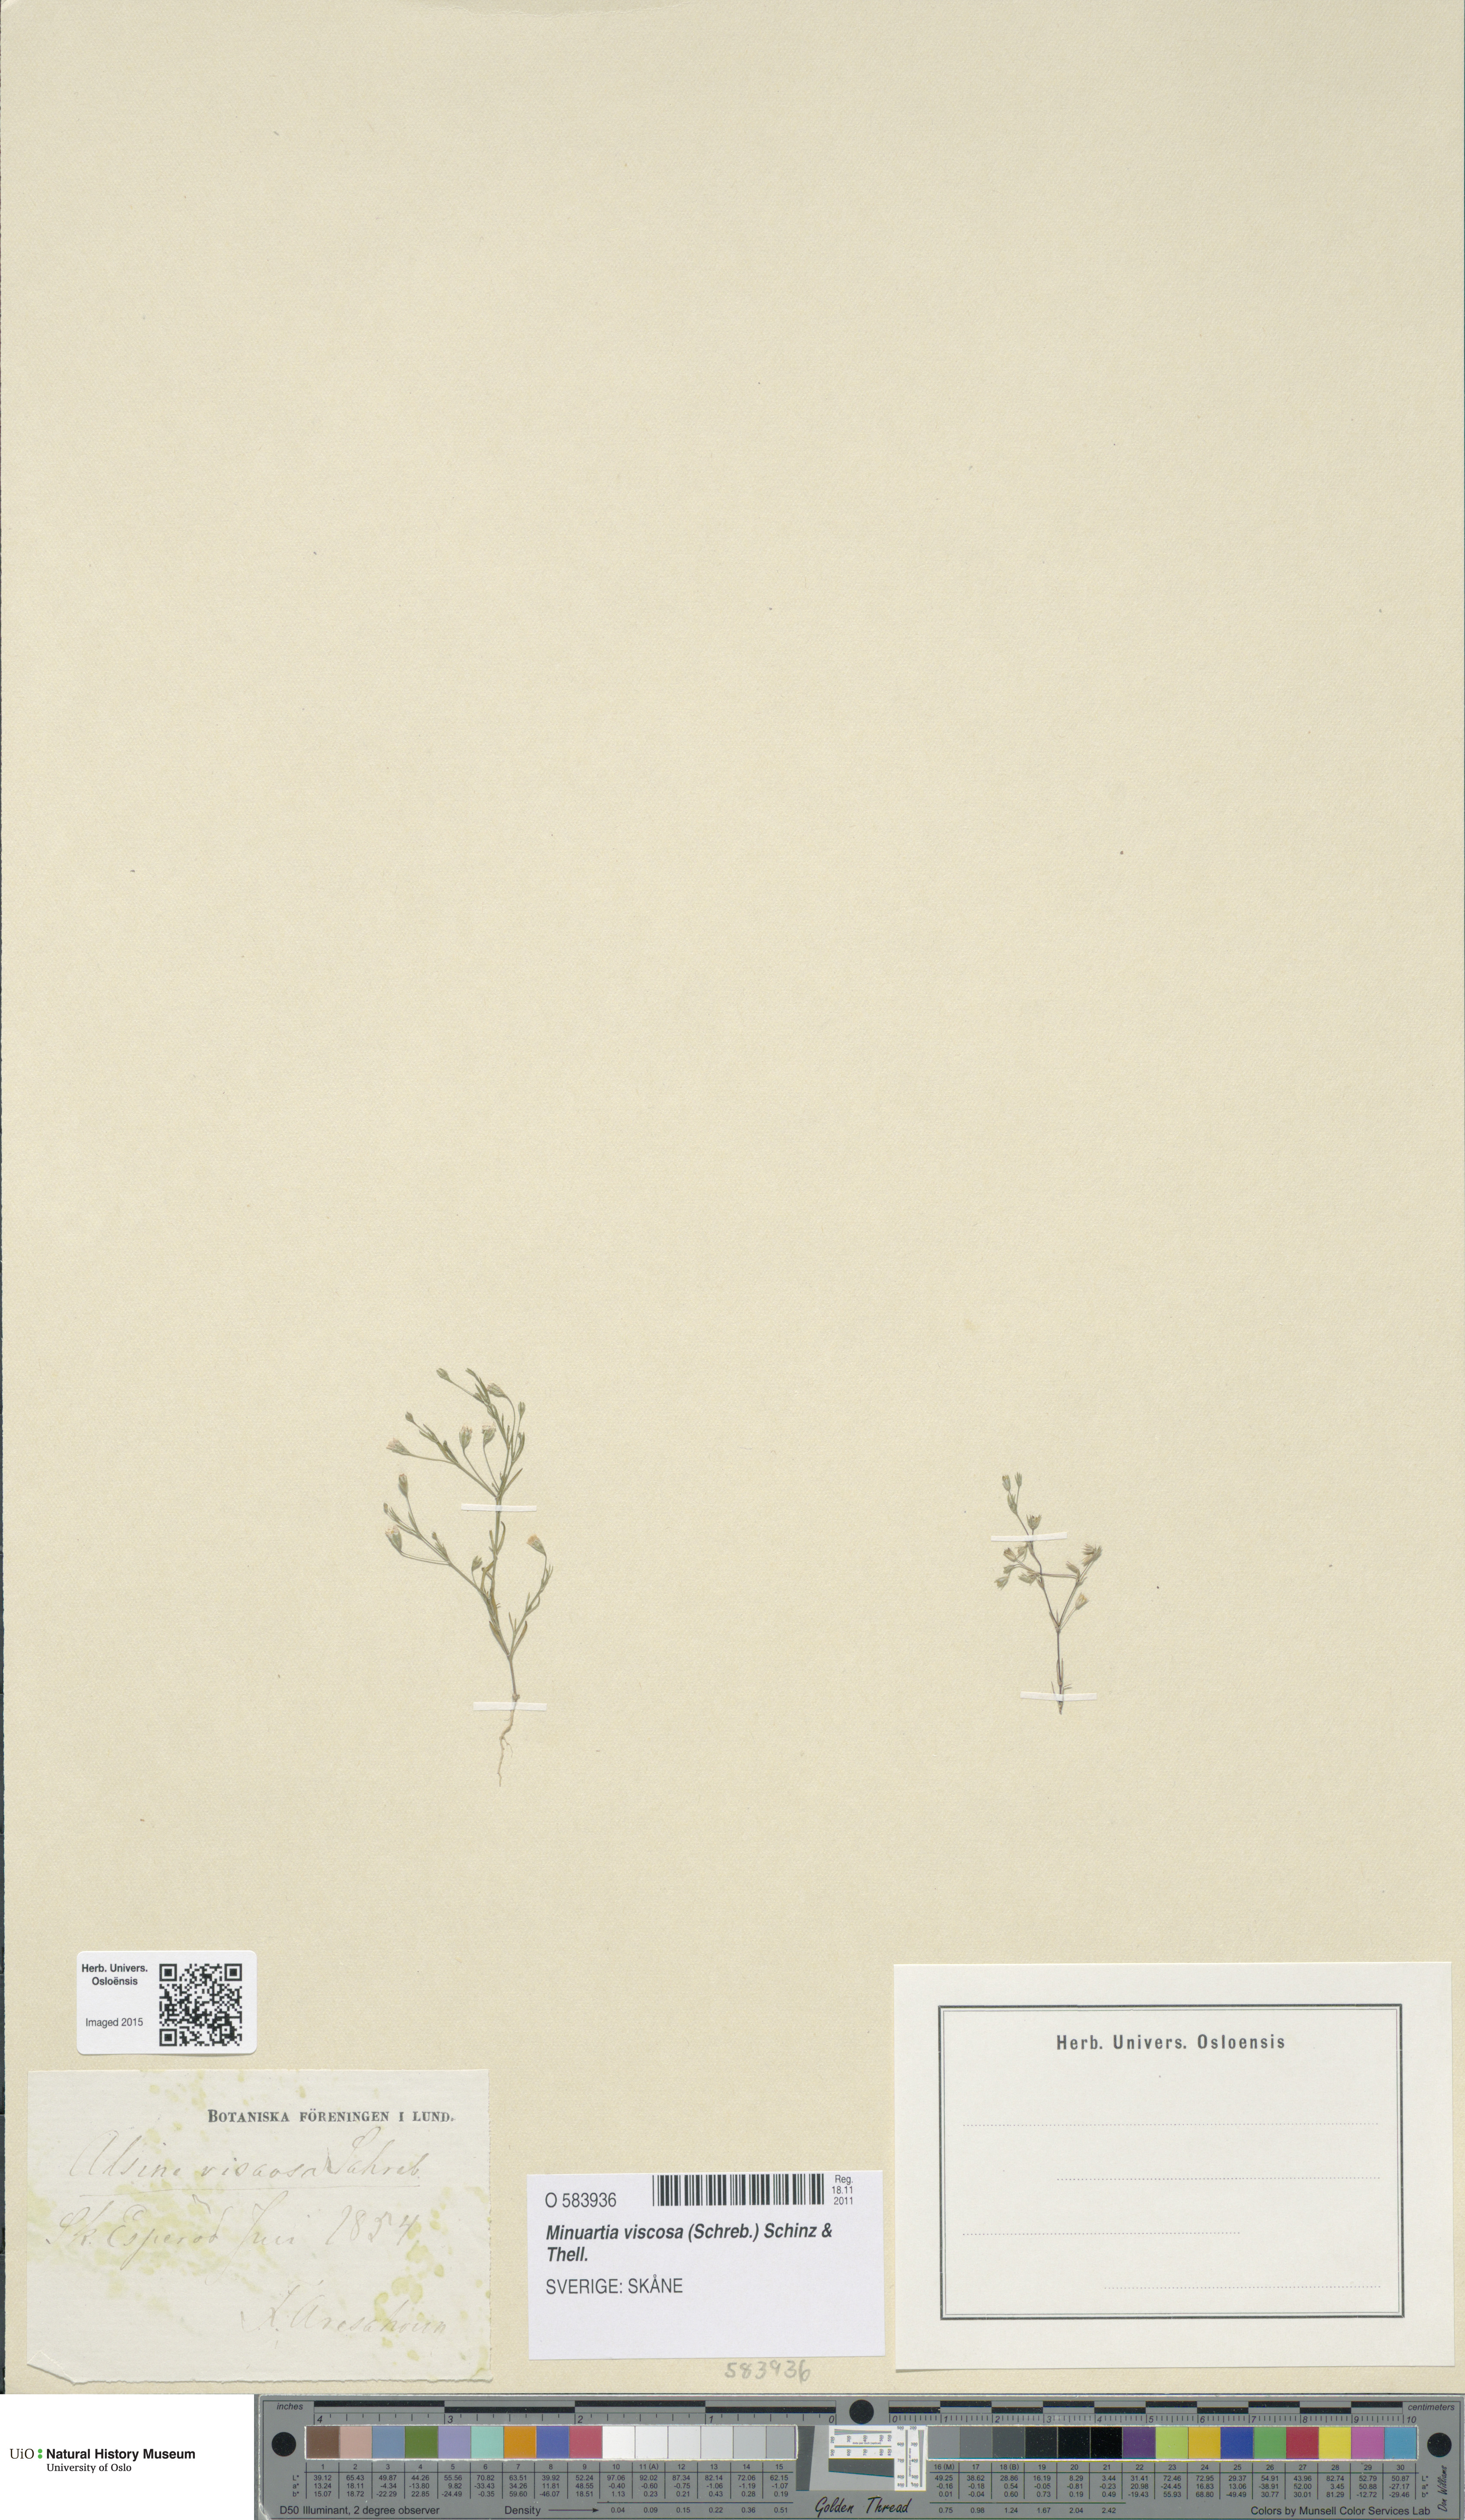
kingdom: Plantae
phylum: Tracheophyta
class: Magnoliopsida
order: Caryophyllales
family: Caryophyllaceae
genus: Sabulina
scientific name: Sabulina viscosa
